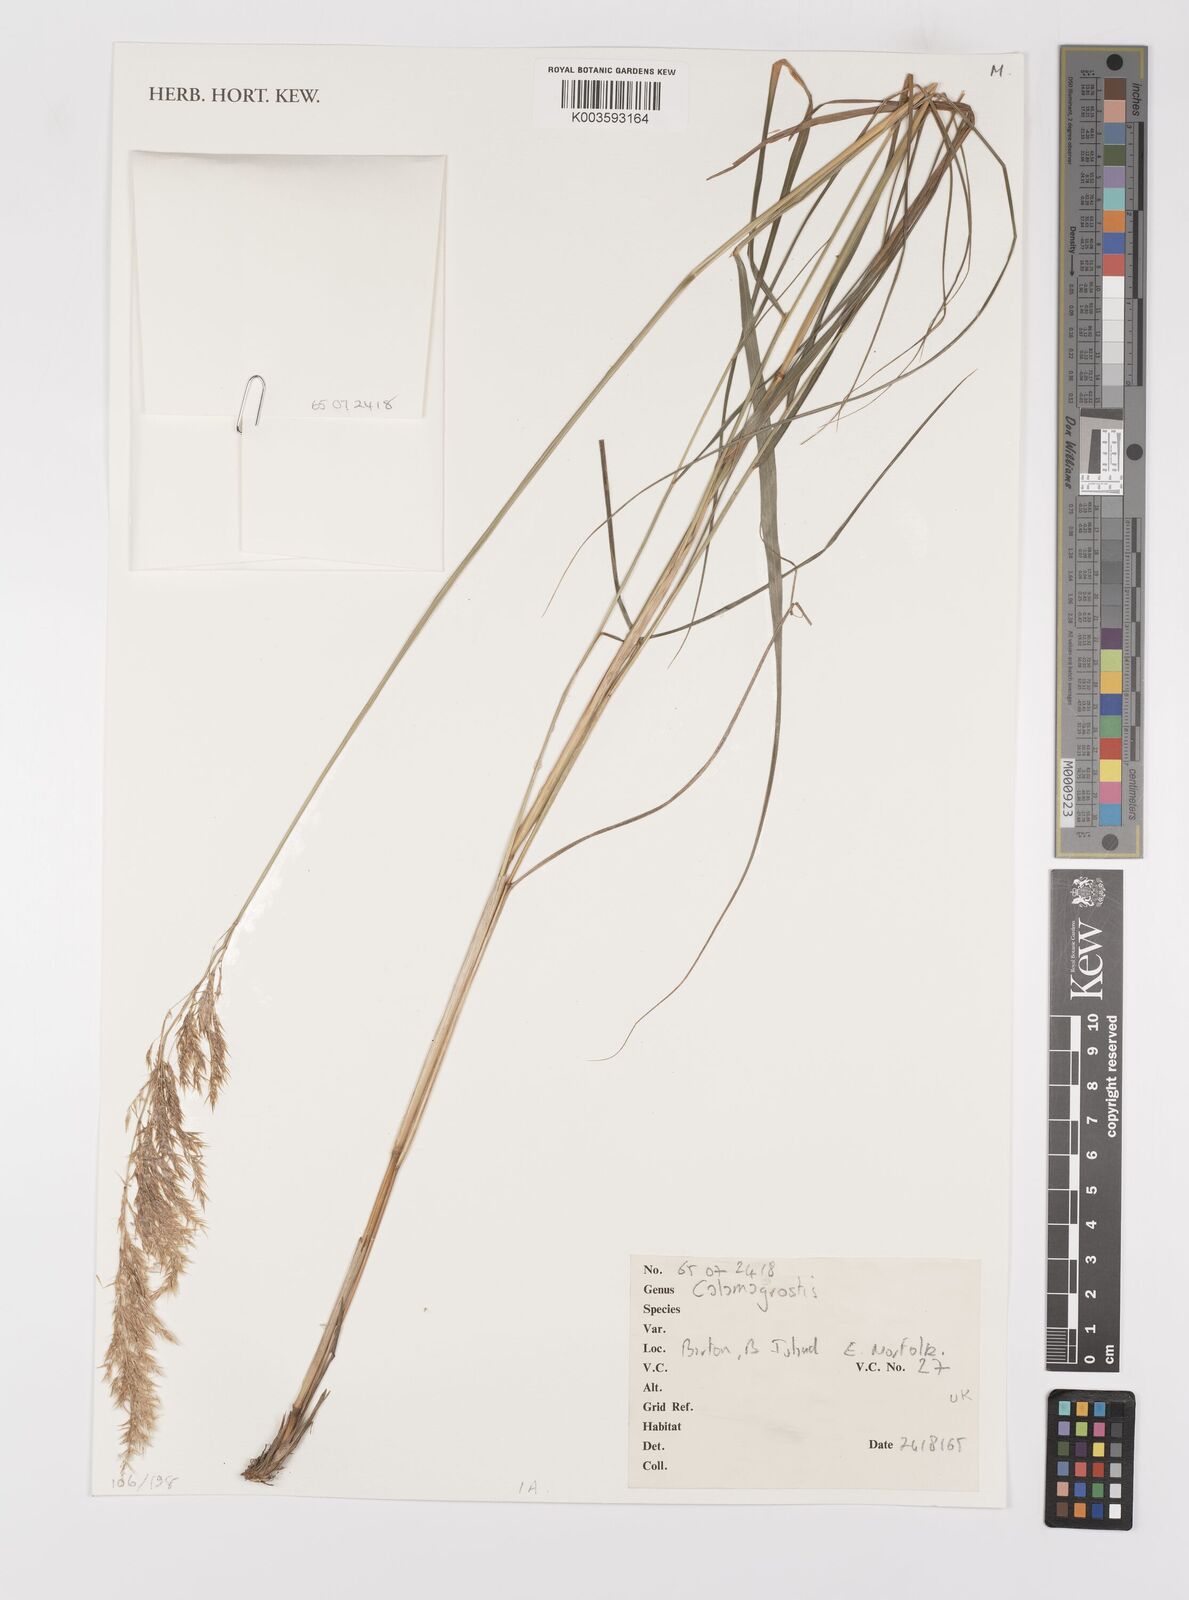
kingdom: Plantae
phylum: Tracheophyta
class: Liliopsida
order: Poales
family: Poaceae
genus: Calamagrostis
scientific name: Calamagrostis
